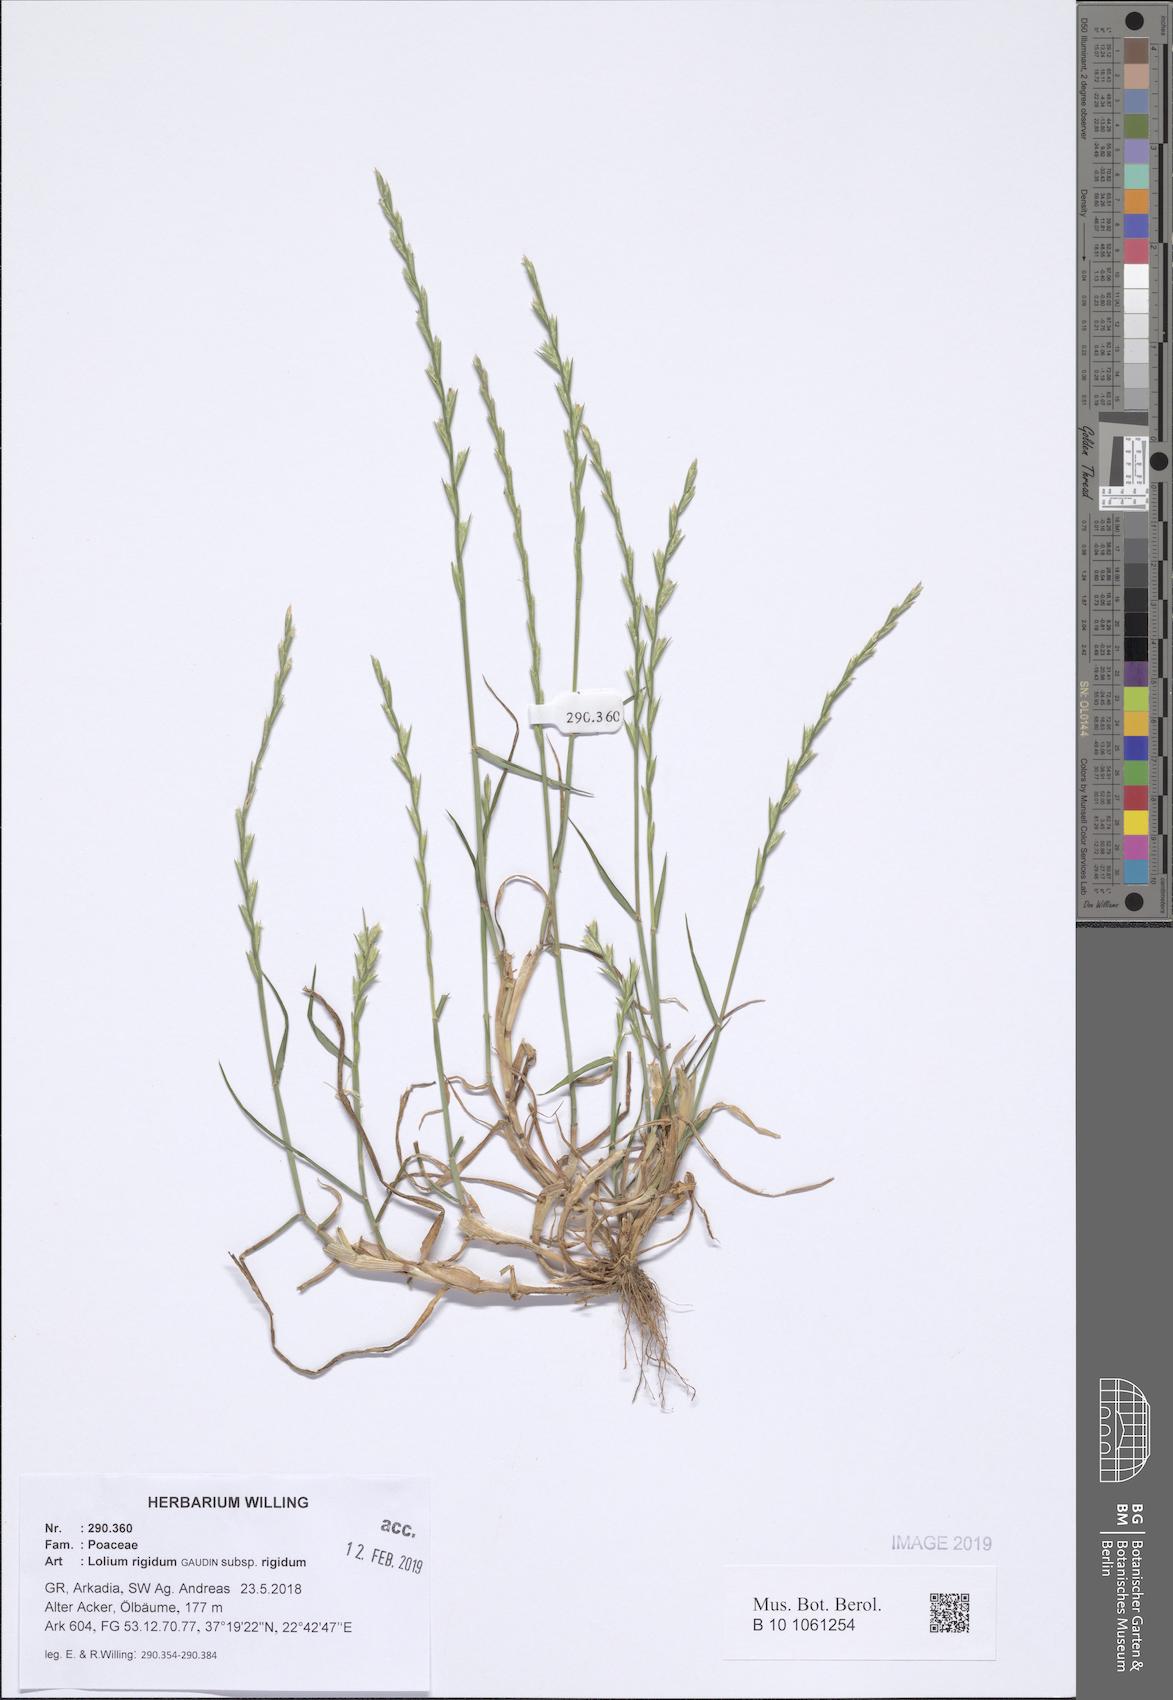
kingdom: Plantae
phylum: Tracheophyta
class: Liliopsida
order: Poales
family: Poaceae
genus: Lolium
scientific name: Lolium rigidum
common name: Wimmera ryegrass
